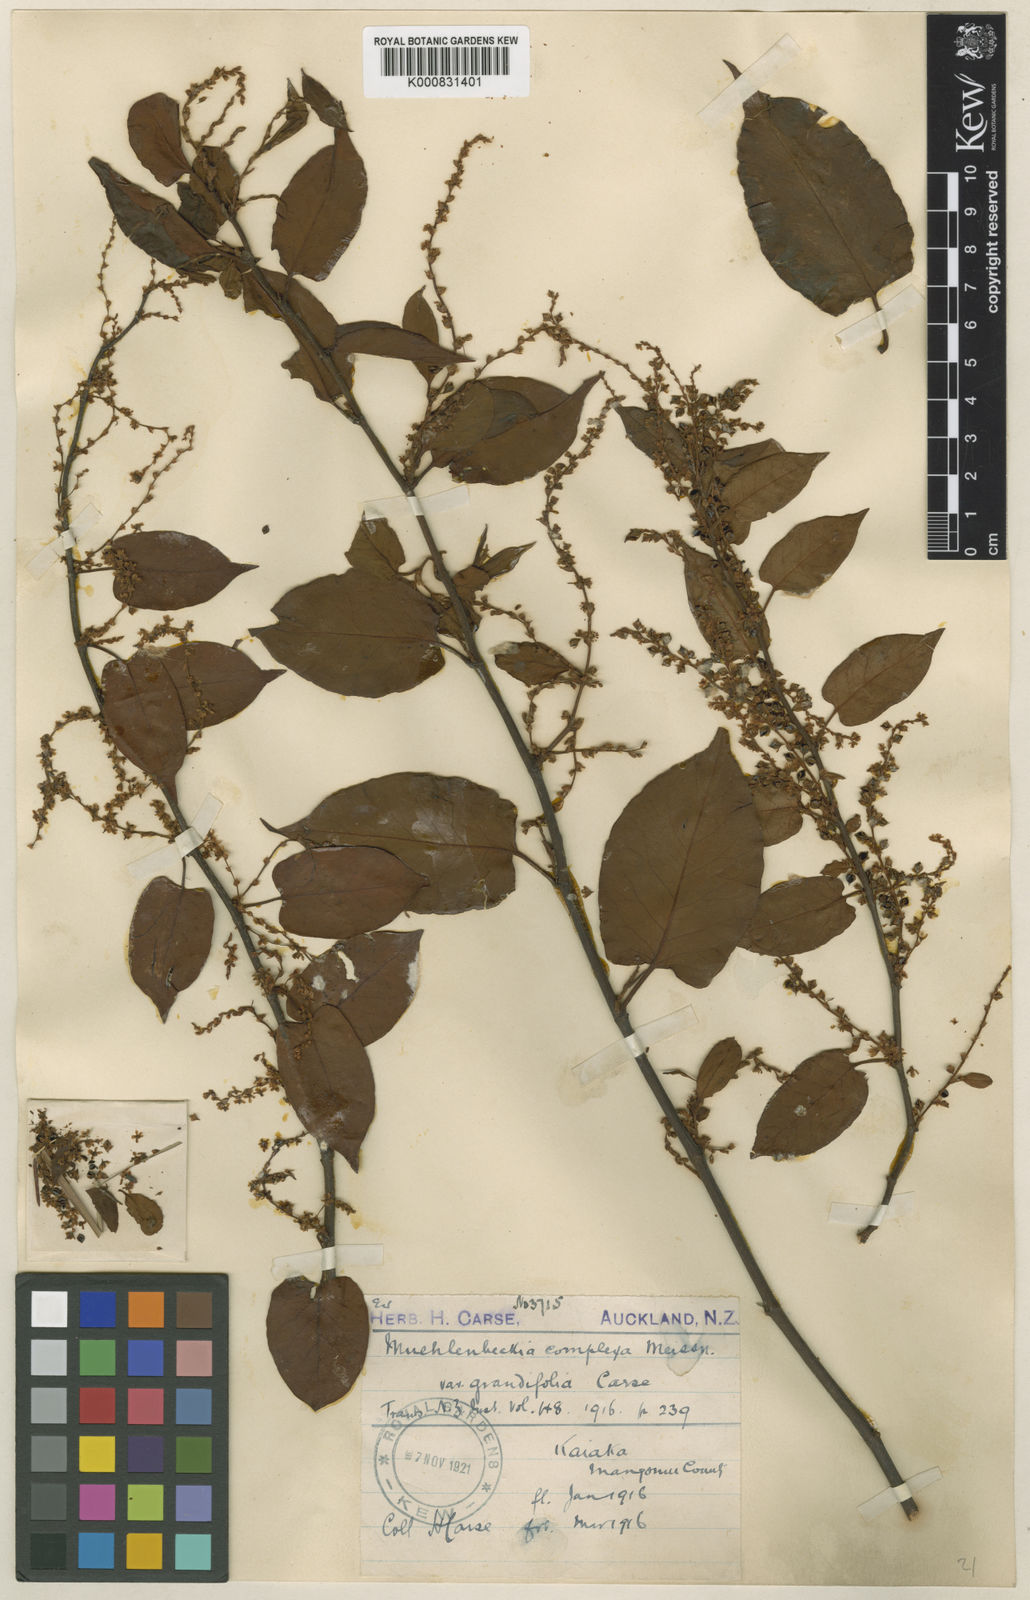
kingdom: Plantae
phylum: Tracheophyta
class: Magnoliopsida
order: Caryophyllales
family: Polygonaceae
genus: Muehlenbeckia
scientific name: Muehlenbeckia complexa
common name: Wireplant
